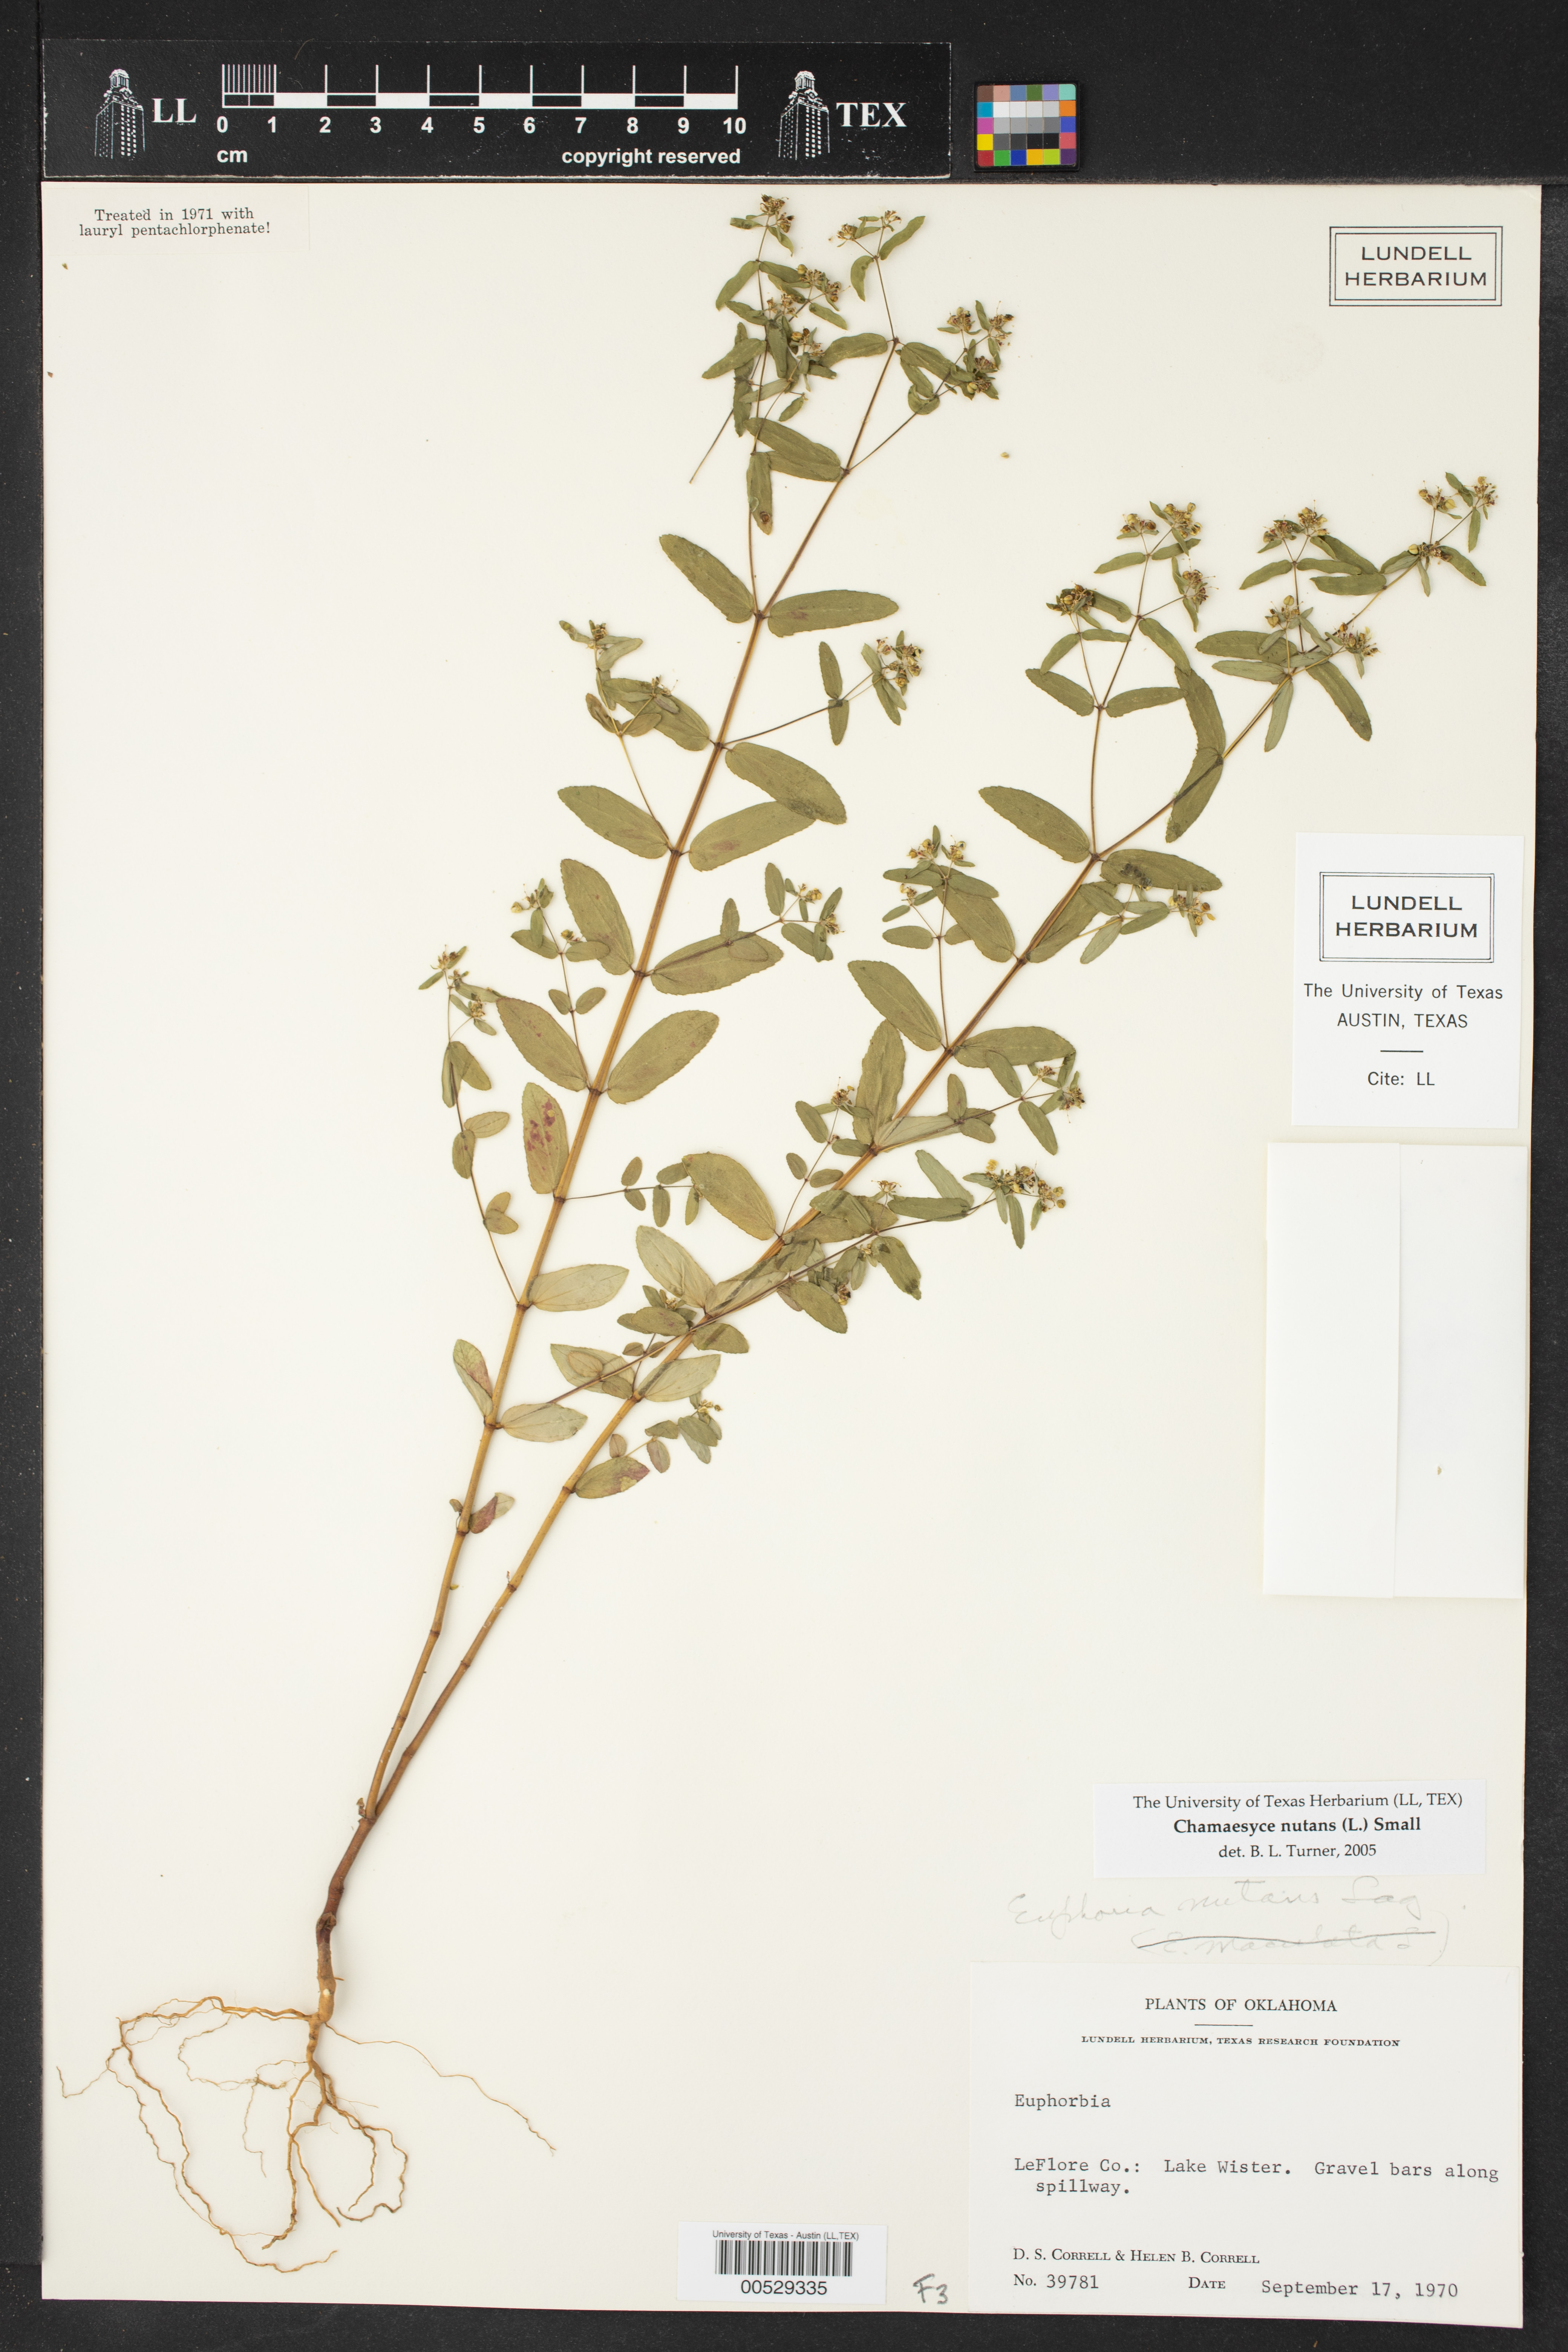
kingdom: Plantae
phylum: Tracheophyta
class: Magnoliopsida
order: Malpighiales
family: Euphorbiaceae
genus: Euphorbia
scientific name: Euphorbia nutans
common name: Eyebane
